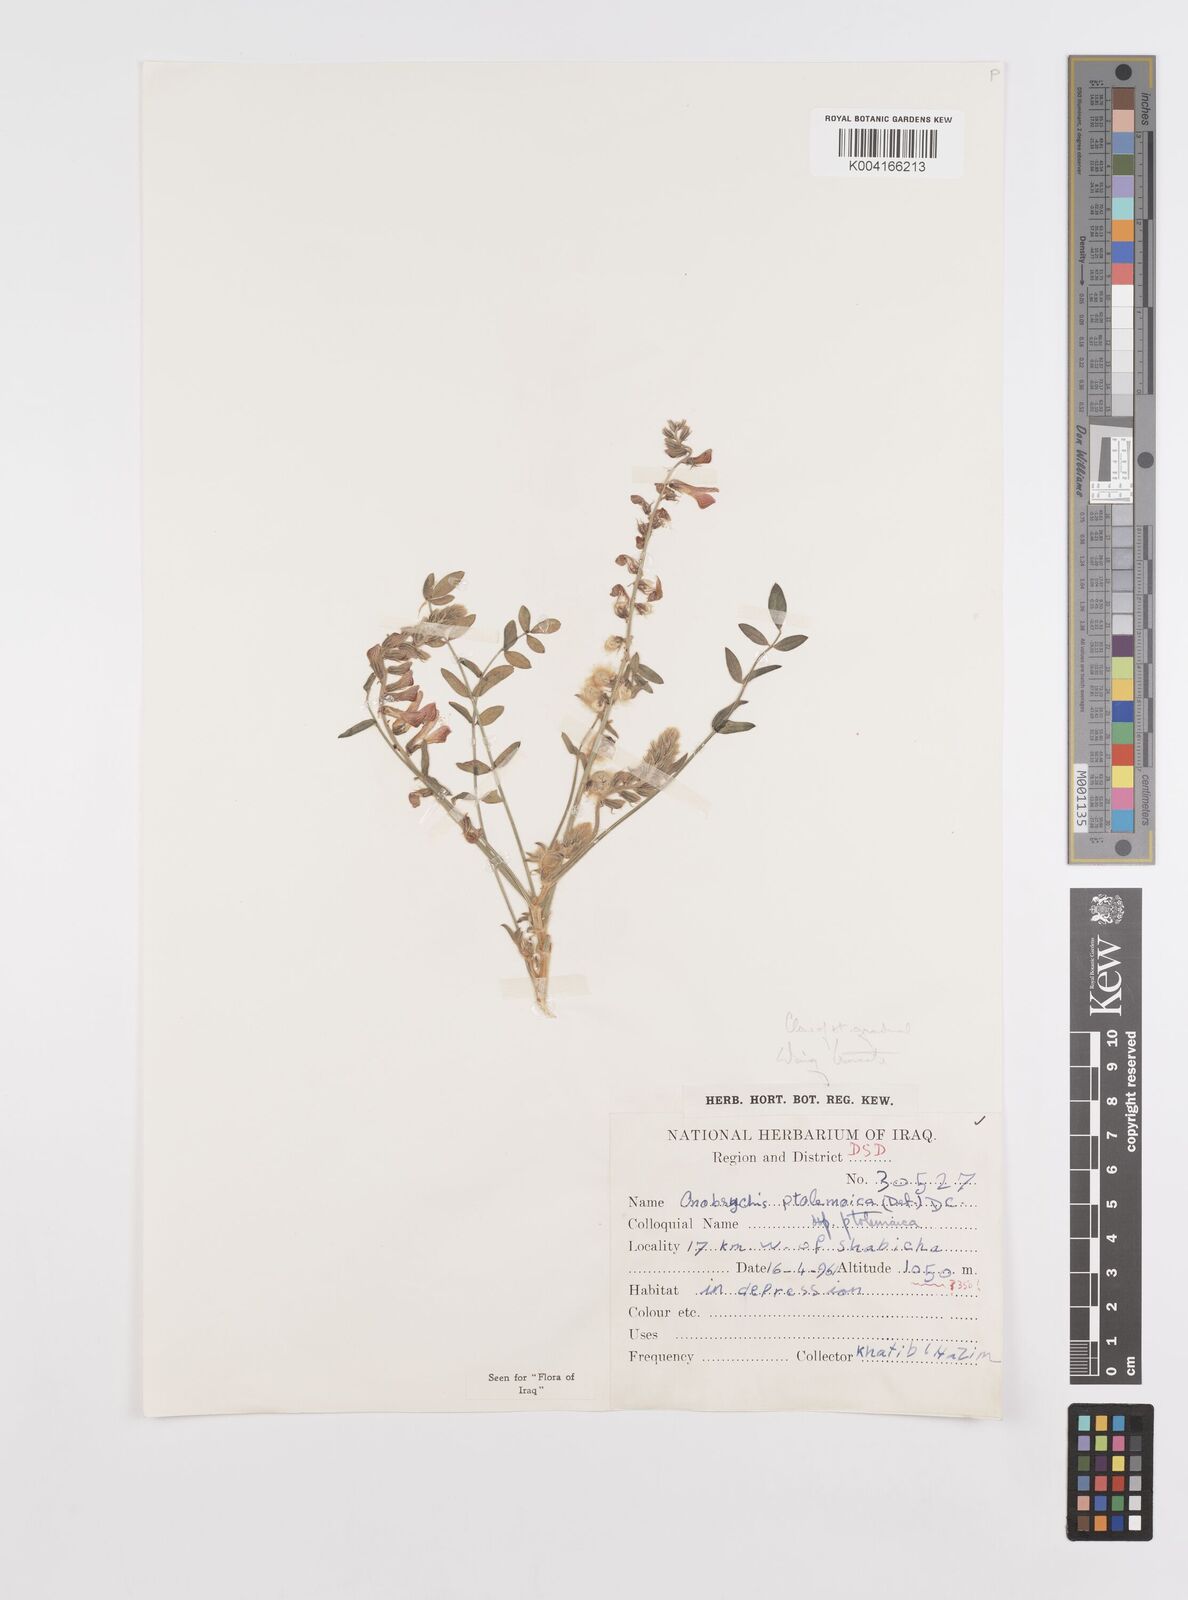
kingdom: Plantae
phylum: Tracheophyta
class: Magnoliopsida
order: Fabales
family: Fabaceae
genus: Onobrychis
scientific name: Onobrychis ptolemaica
